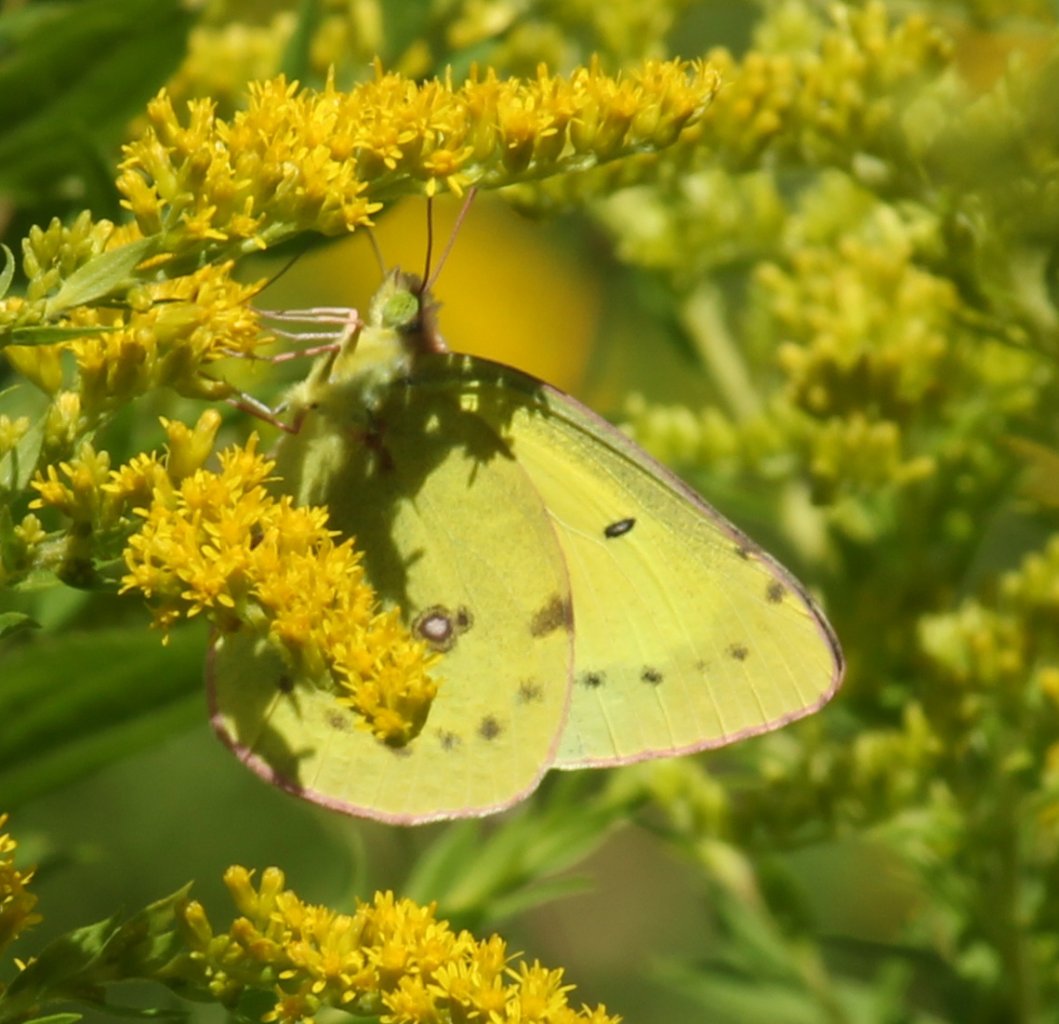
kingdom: Animalia
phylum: Arthropoda
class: Insecta
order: Lepidoptera
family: Pieridae
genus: Colias
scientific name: Colias philodice
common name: Clouded Sulphur
